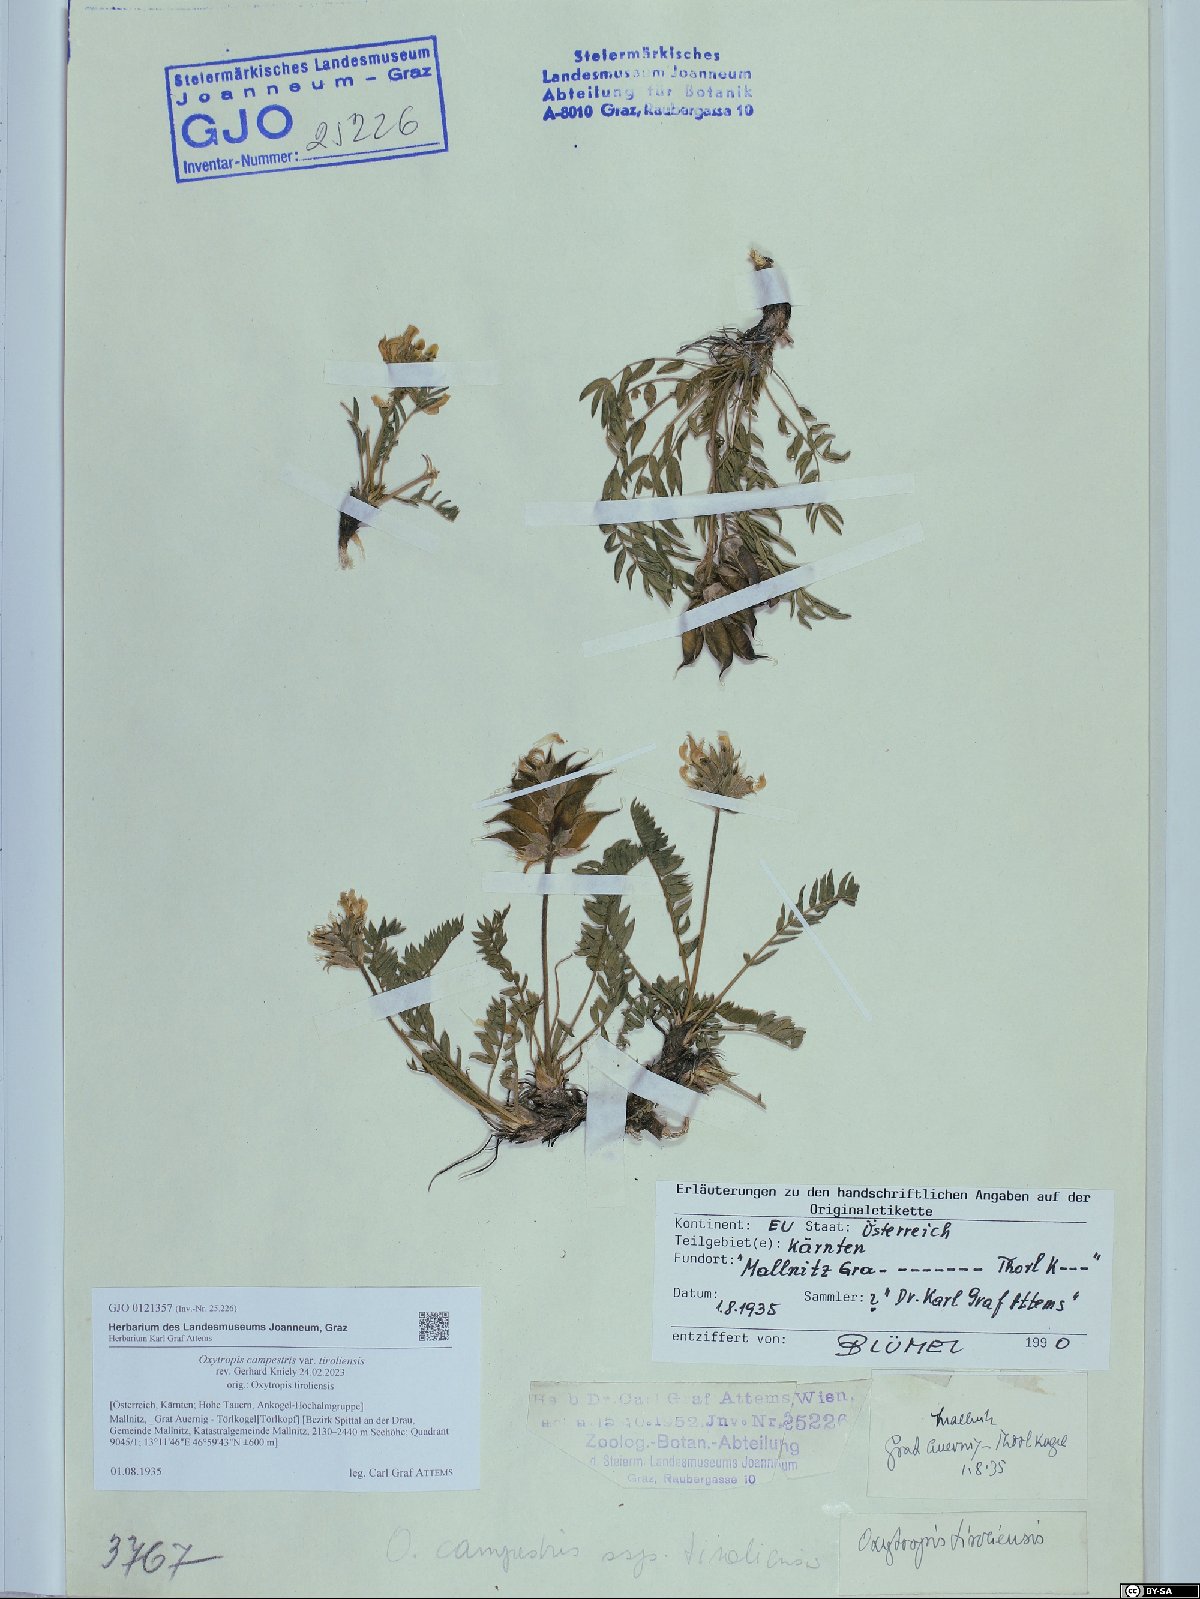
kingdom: Plantae
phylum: Tracheophyta
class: Magnoliopsida
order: Fabales
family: Fabaceae
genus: Oxytropis
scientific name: Oxytropis campestris
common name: Field locoweed
